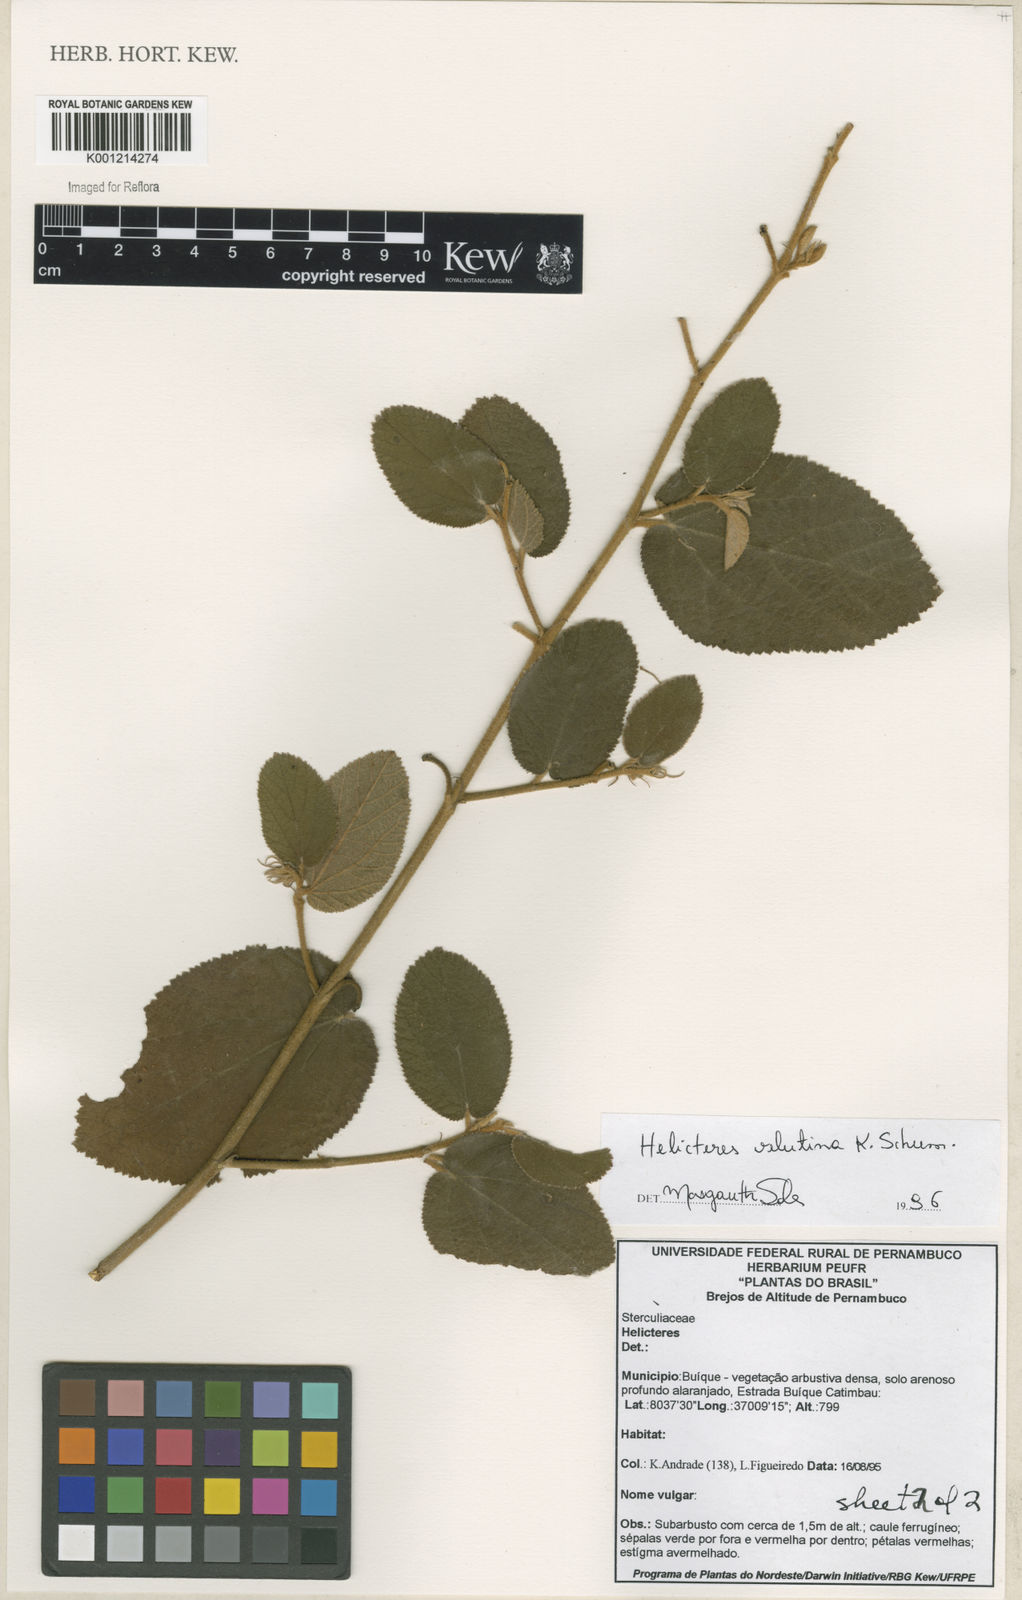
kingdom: Plantae
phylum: Tracheophyta
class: Magnoliopsida
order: Malvales
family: Malvaceae
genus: Helicteres
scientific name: Helicteres velutina
